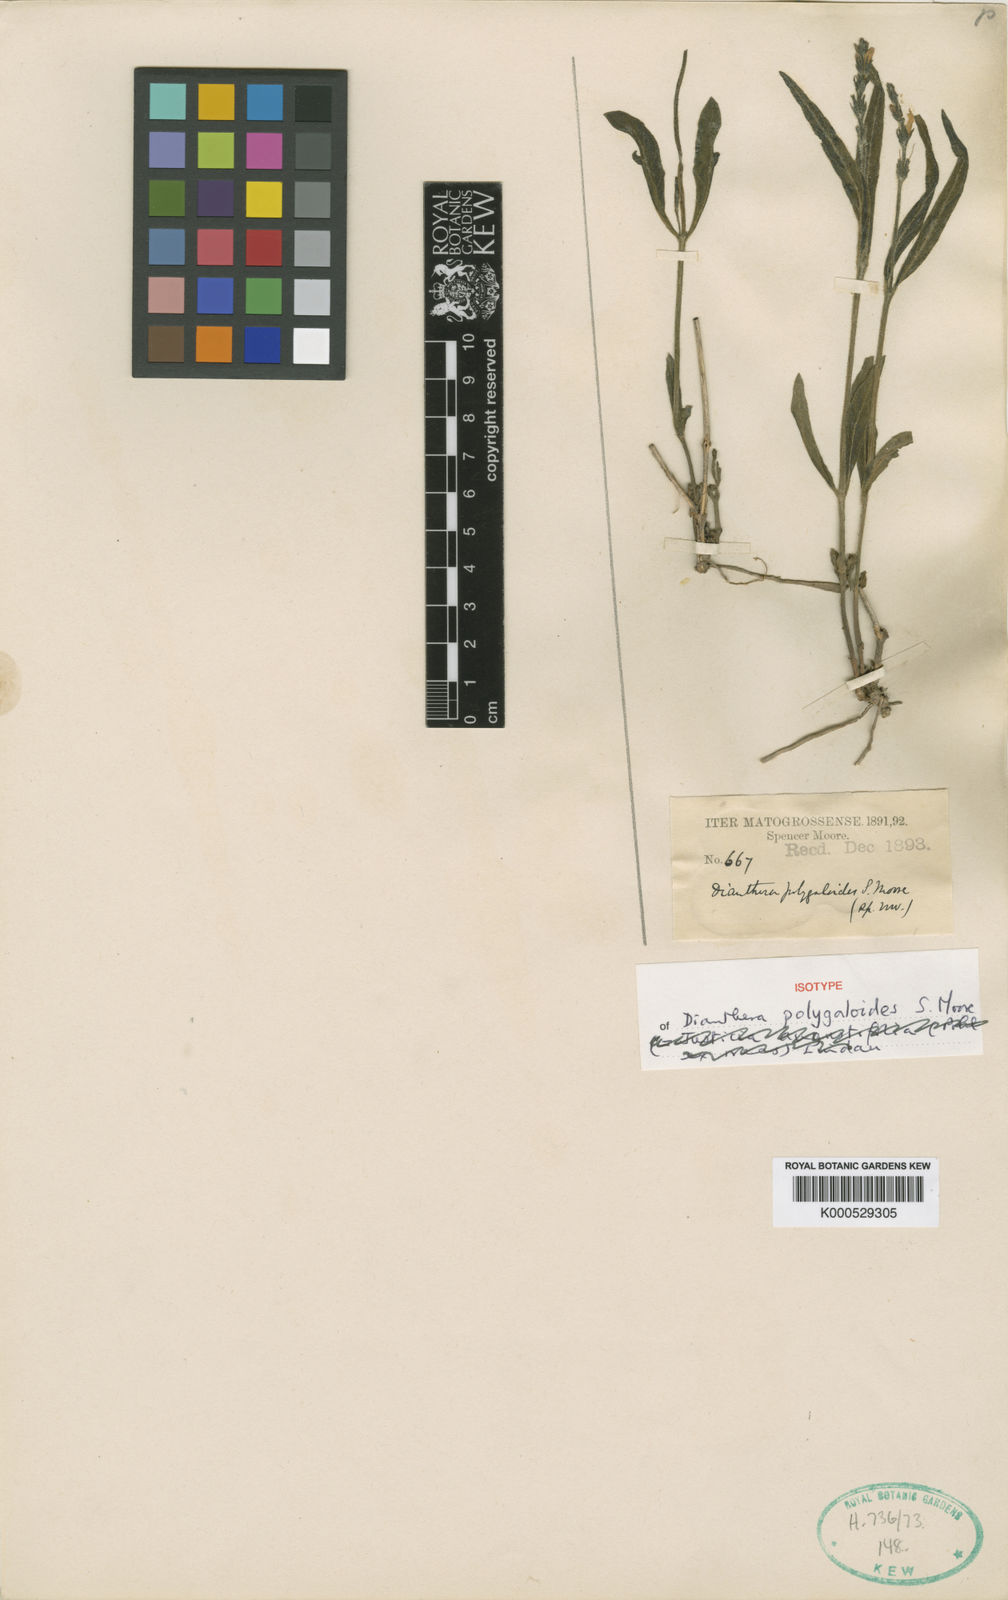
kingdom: Plantae
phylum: Tracheophyta
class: Magnoliopsida
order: Lamiales
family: Acanthaceae
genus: Dianthera
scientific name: Dianthera polygaloides
